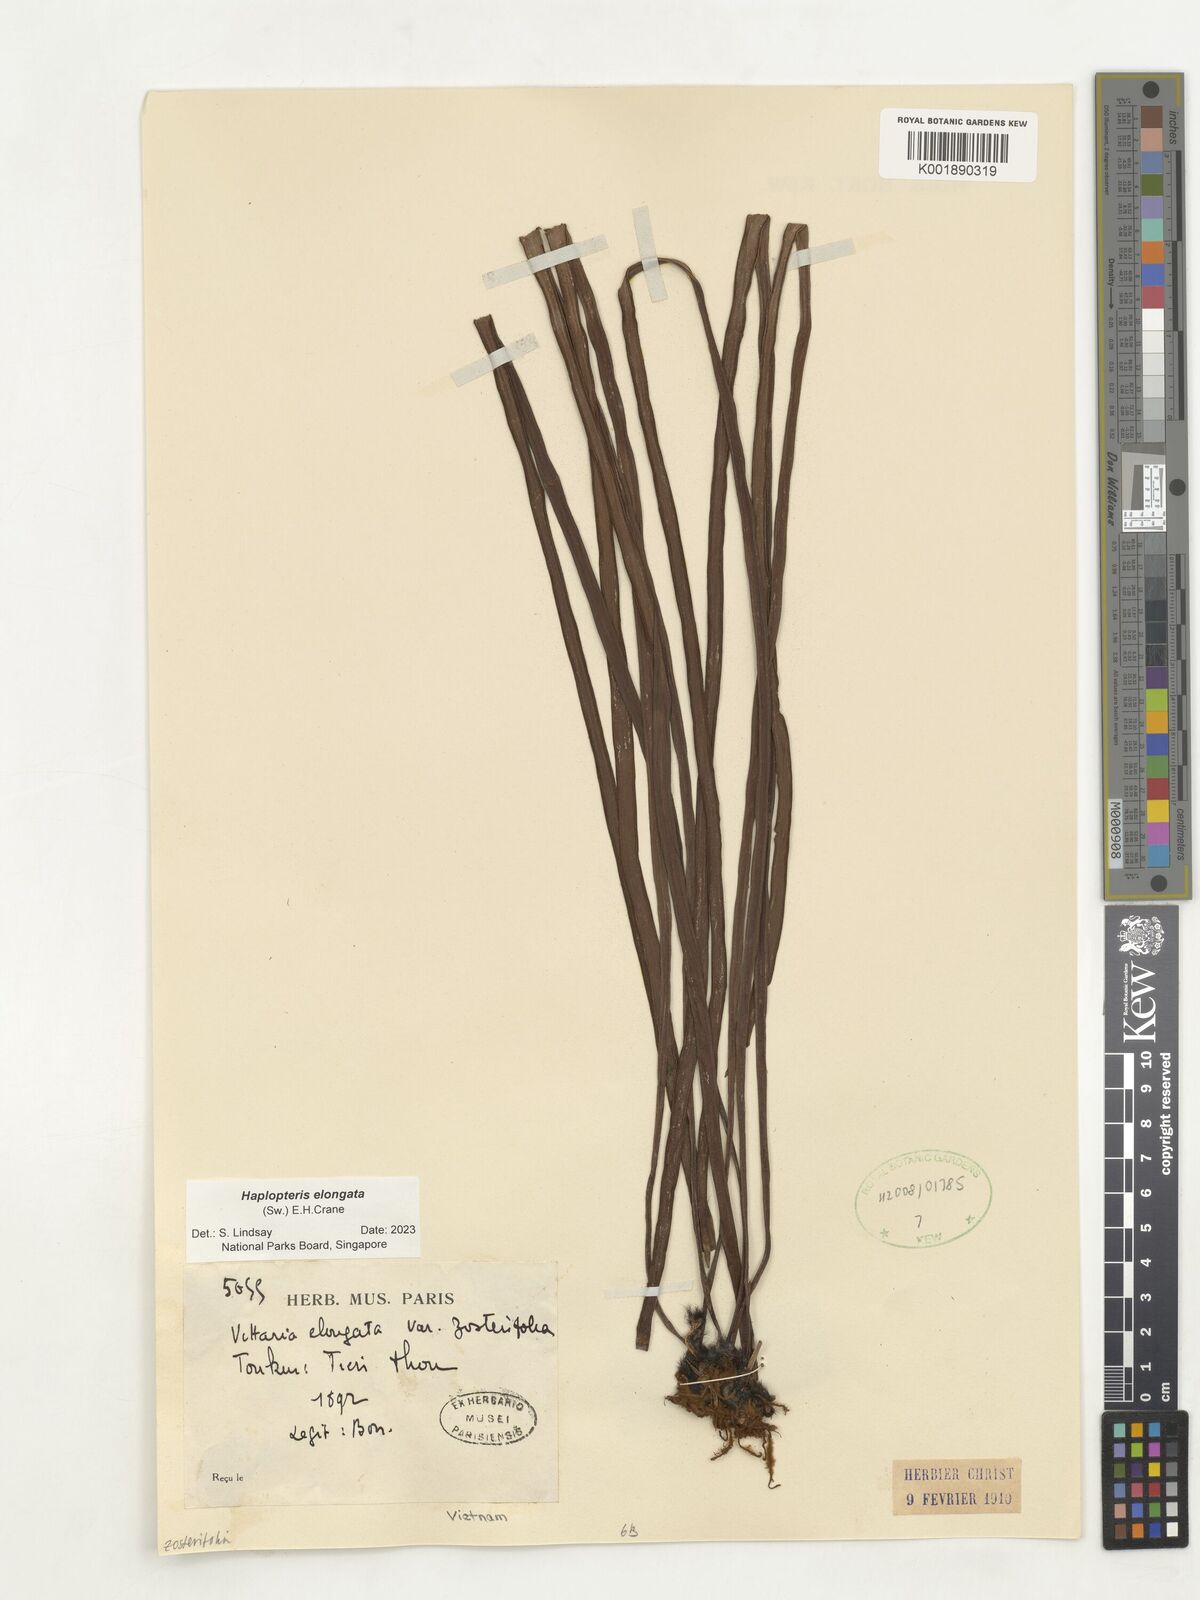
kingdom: Plantae
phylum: Tracheophyta
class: Polypodiopsida
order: Polypodiales
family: Pteridaceae
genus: Haplopteris
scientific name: Haplopteris elongata
